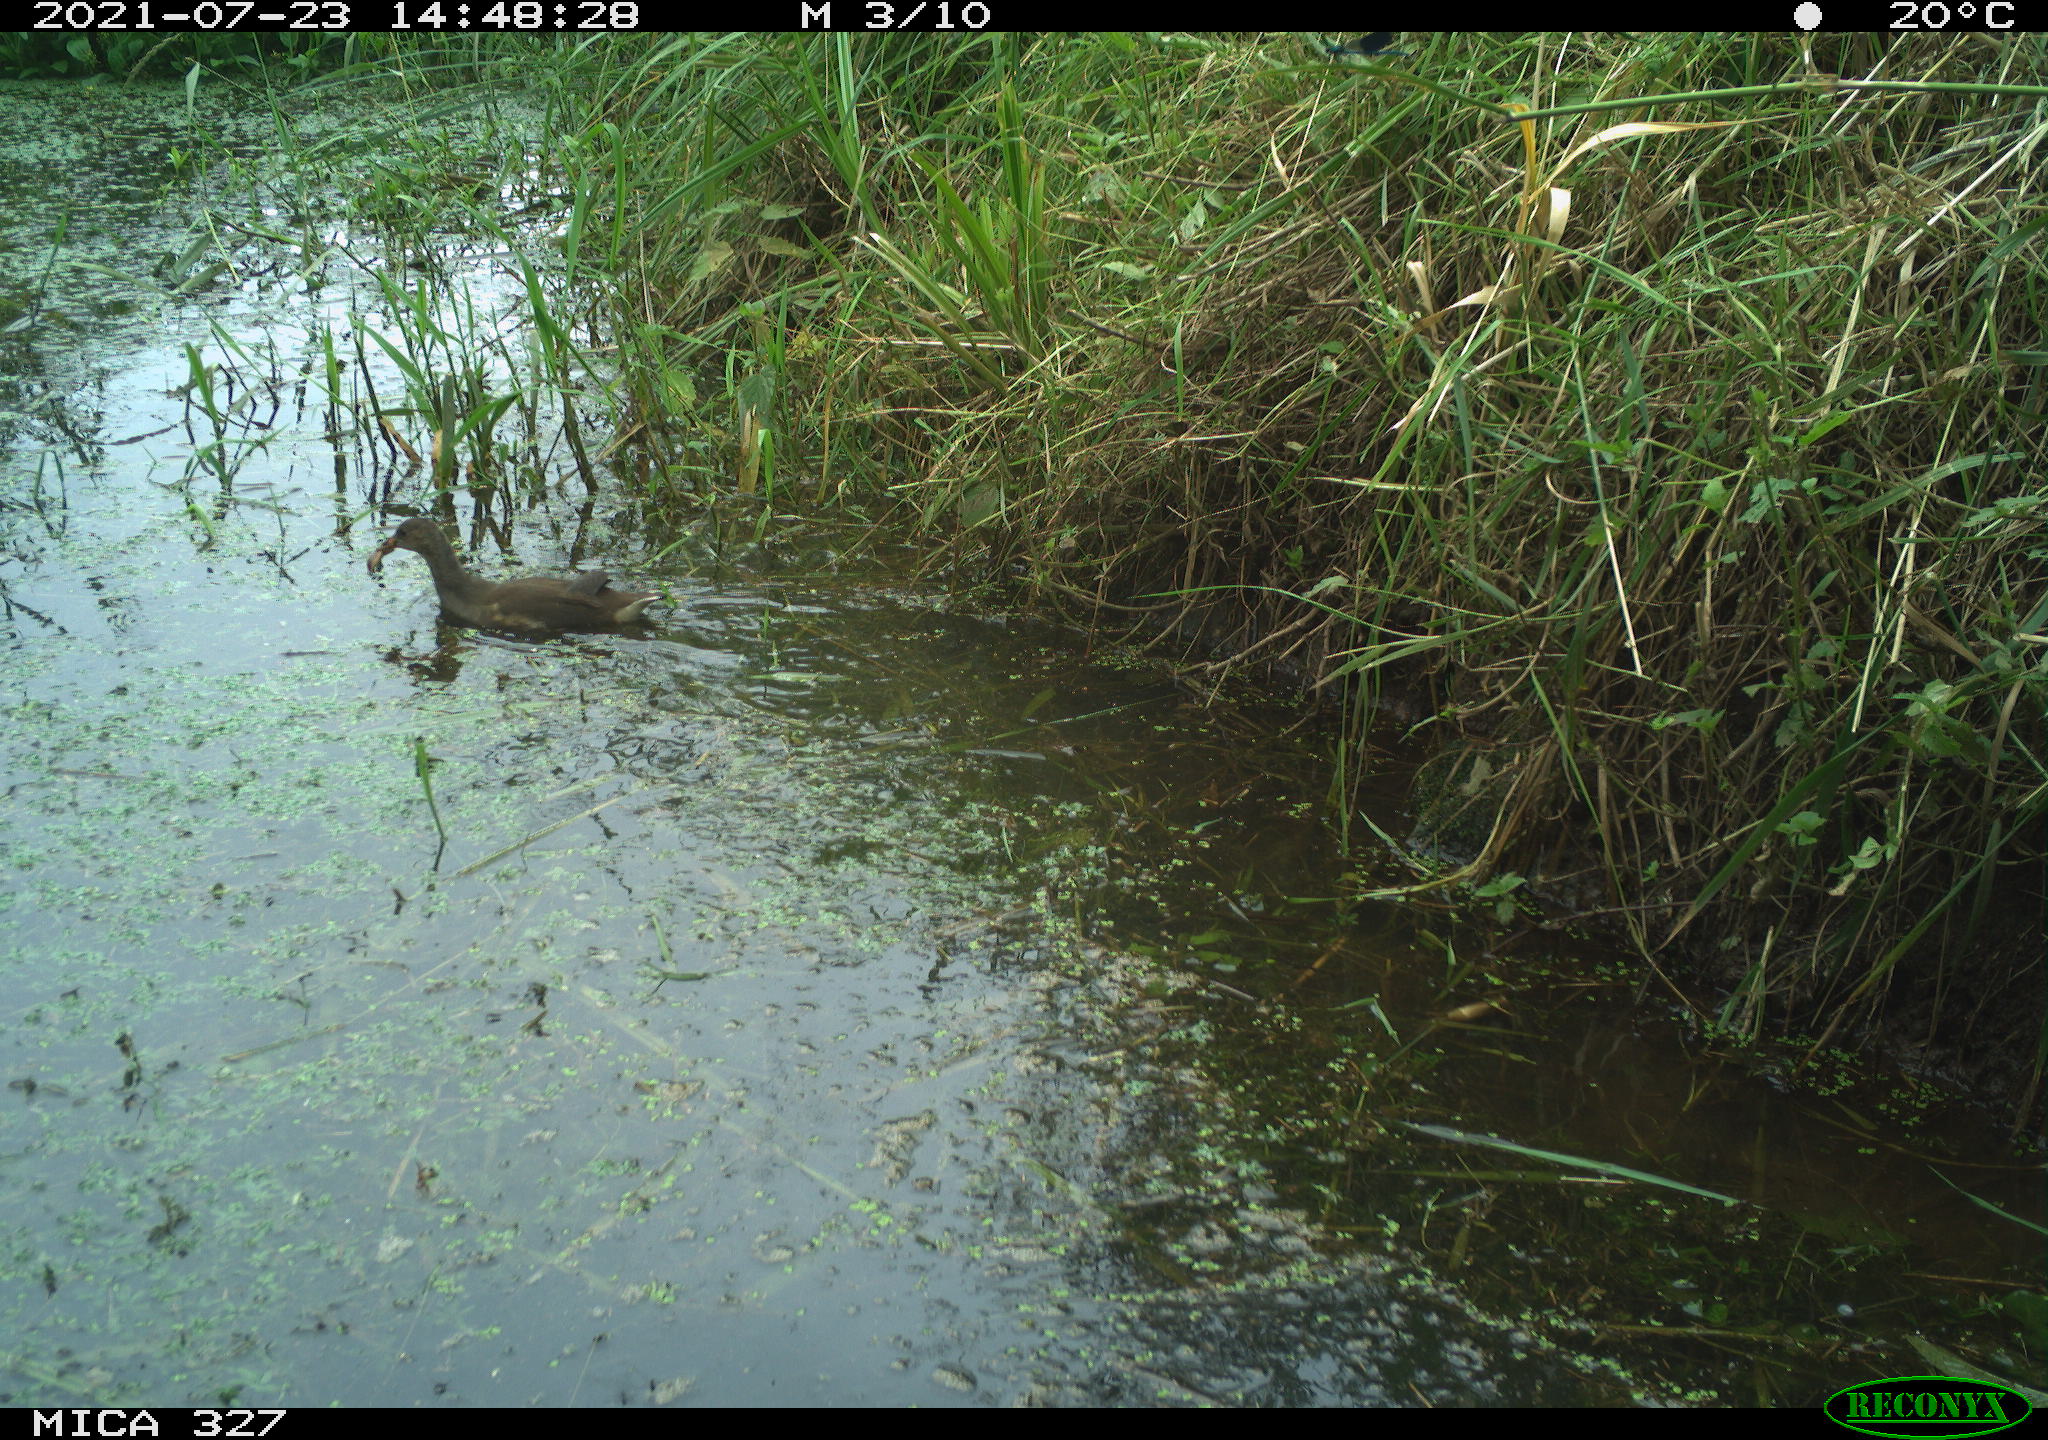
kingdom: Animalia
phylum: Chordata
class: Aves
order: Gruiformes
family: Rallidae
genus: Gallinula
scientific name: Gallinula chloropus
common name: Common moorhen
